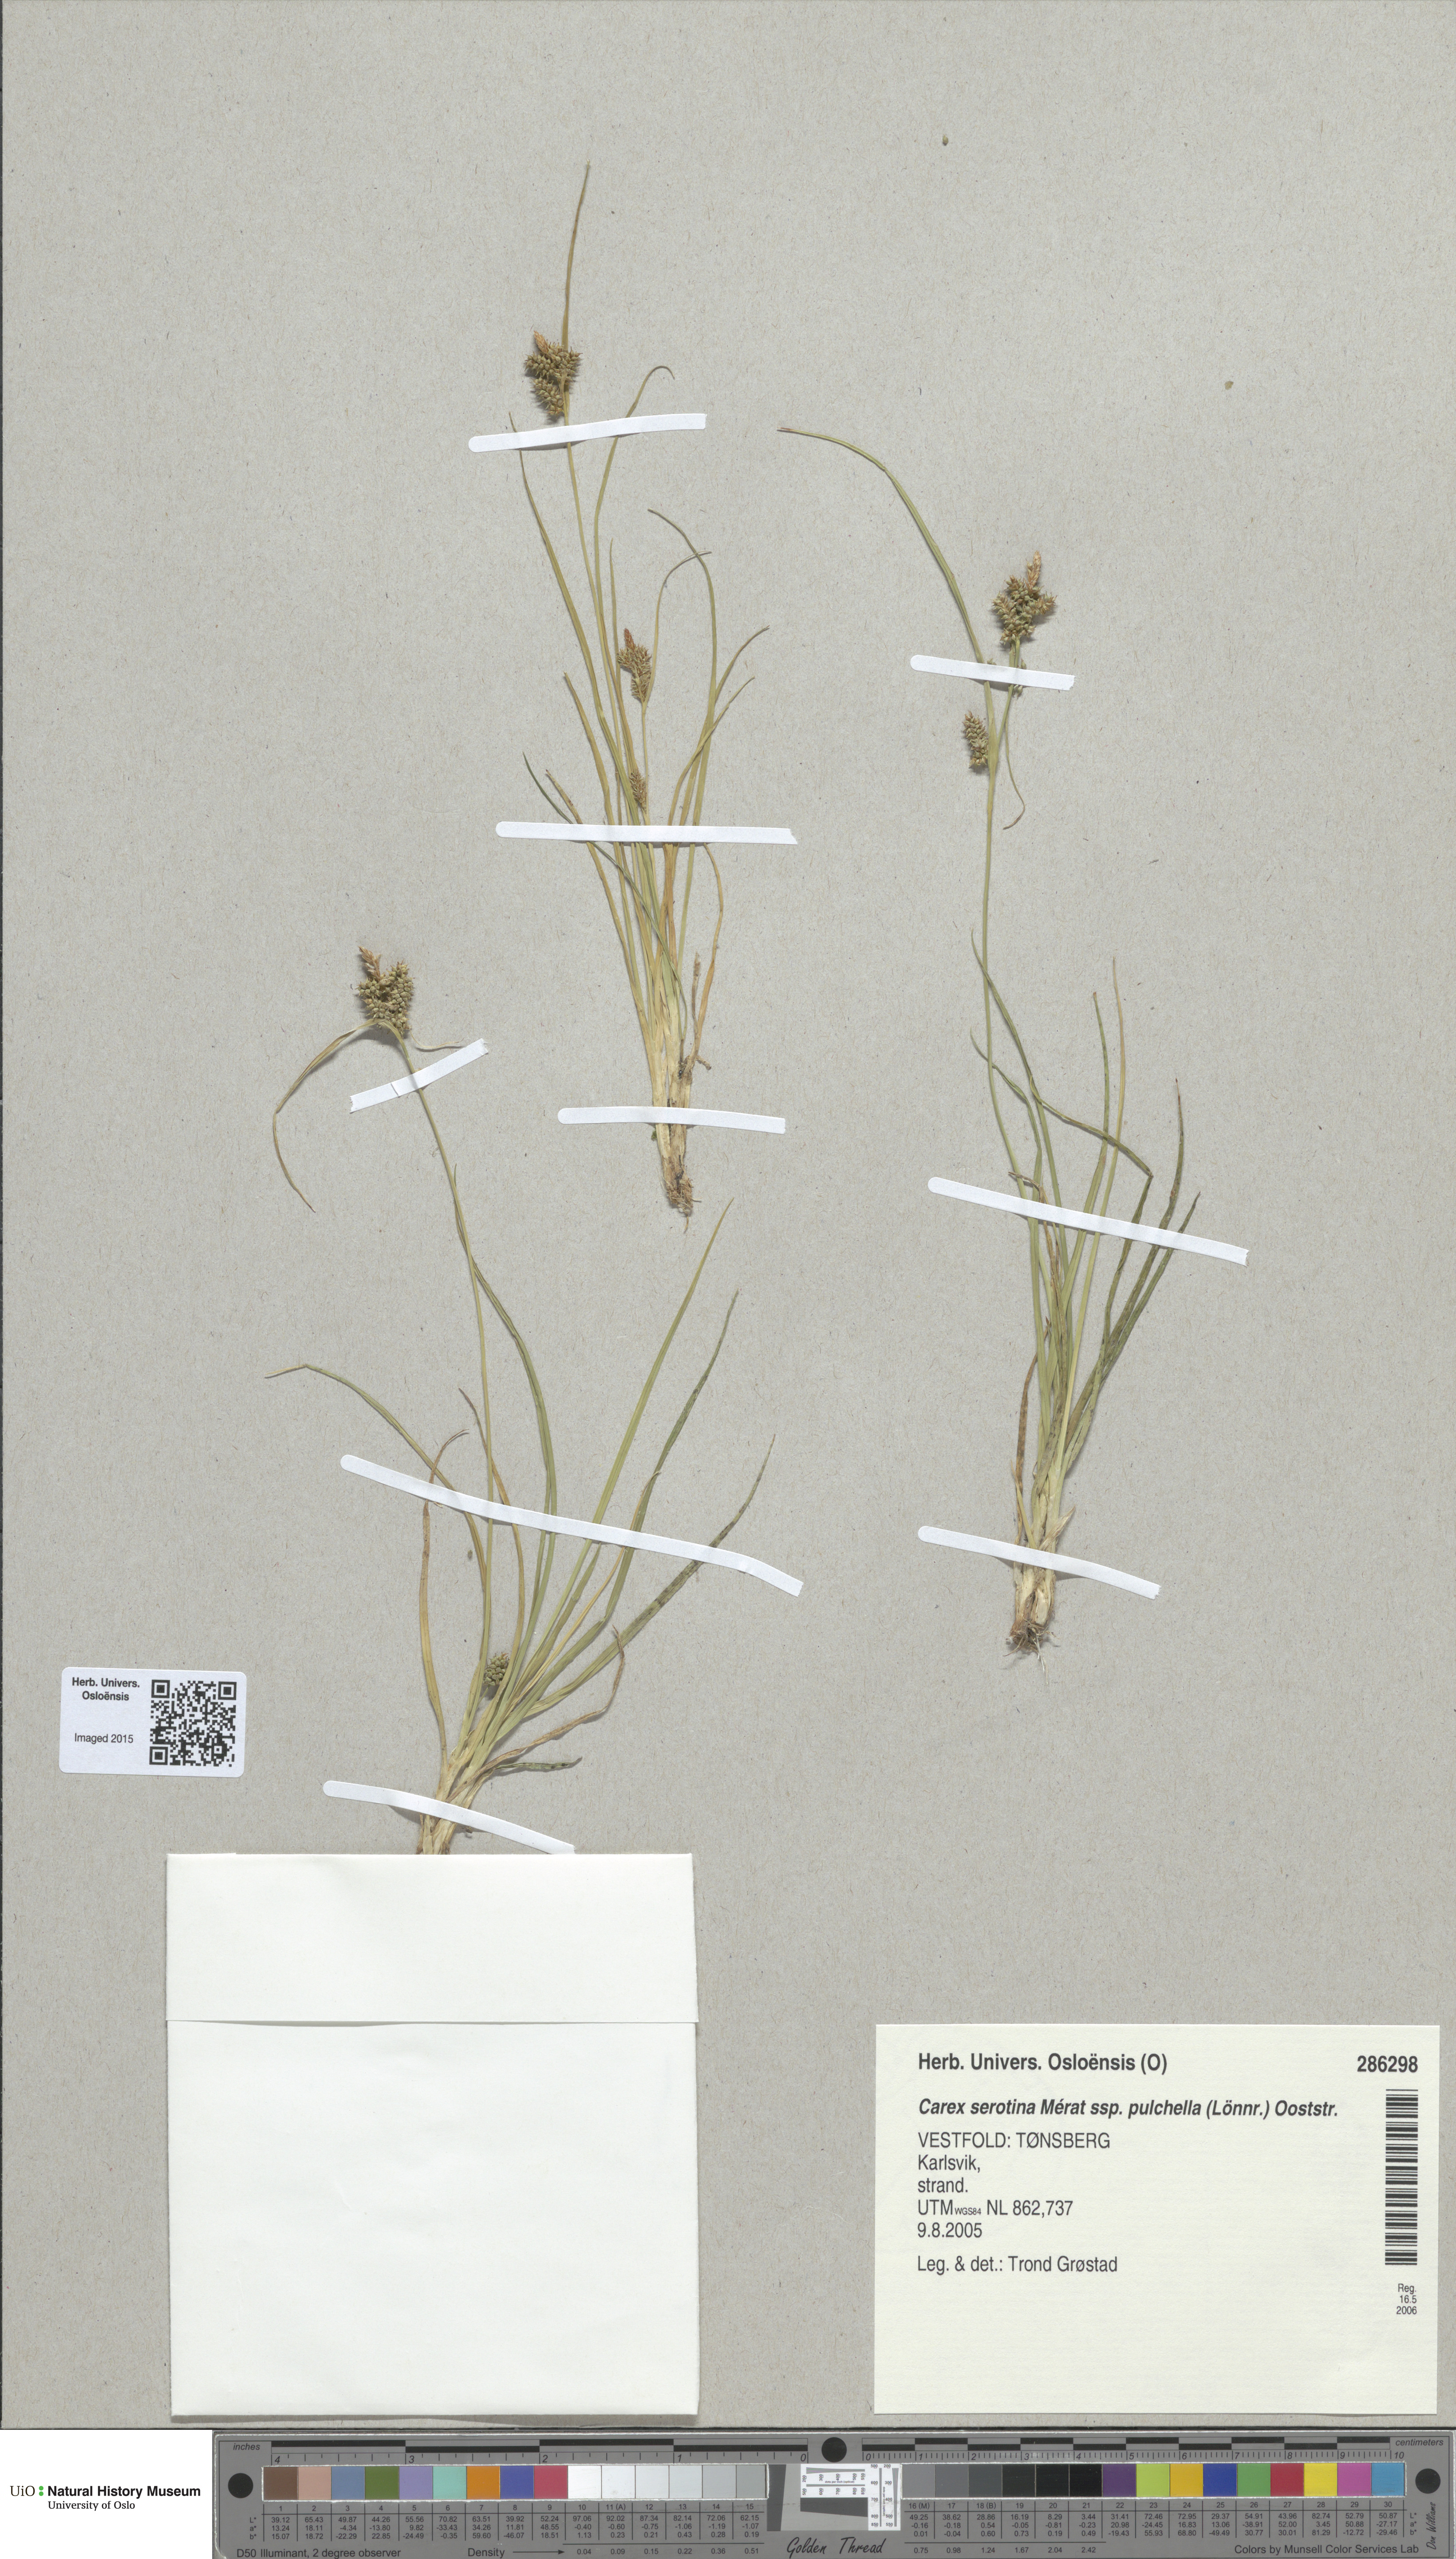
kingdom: Plantae
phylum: Tracheophyta
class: Liliopsida
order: Poales
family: Cyperaceae
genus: Carex
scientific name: Carex oederi
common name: Common & small-fruited yellow-sedge
